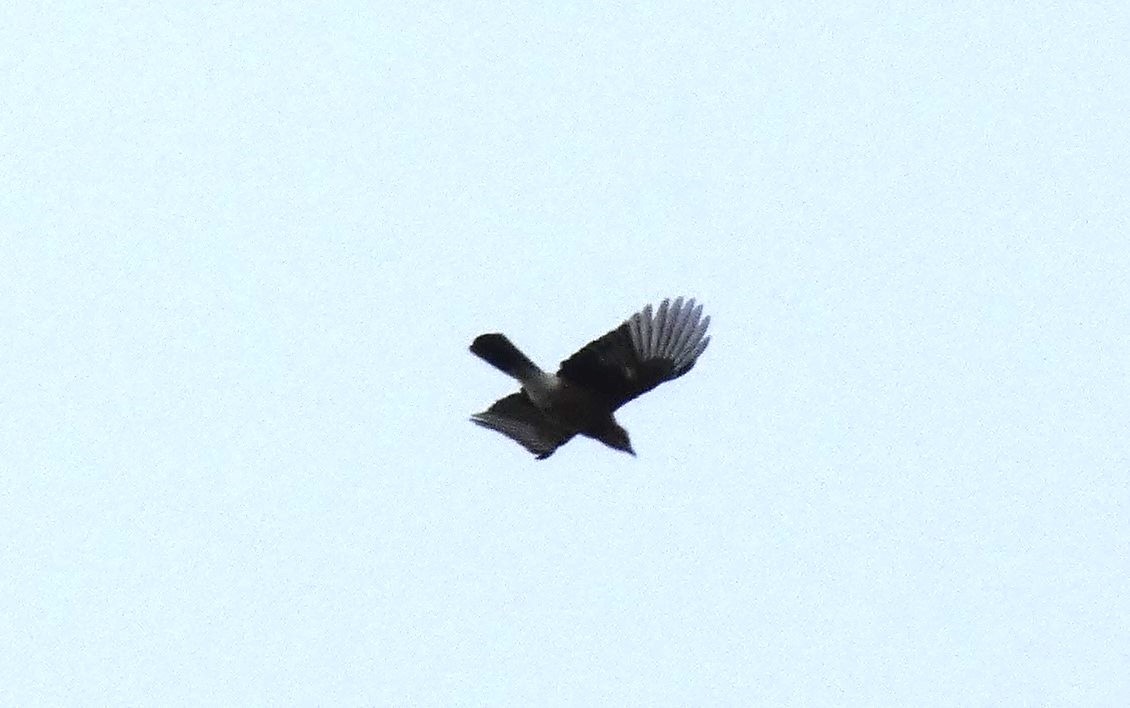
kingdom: Animalia
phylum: Chordata
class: Aves
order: Passeriformes
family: Corvidae
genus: Garrulus
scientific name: Garrulus glandarius
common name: Skovskade
